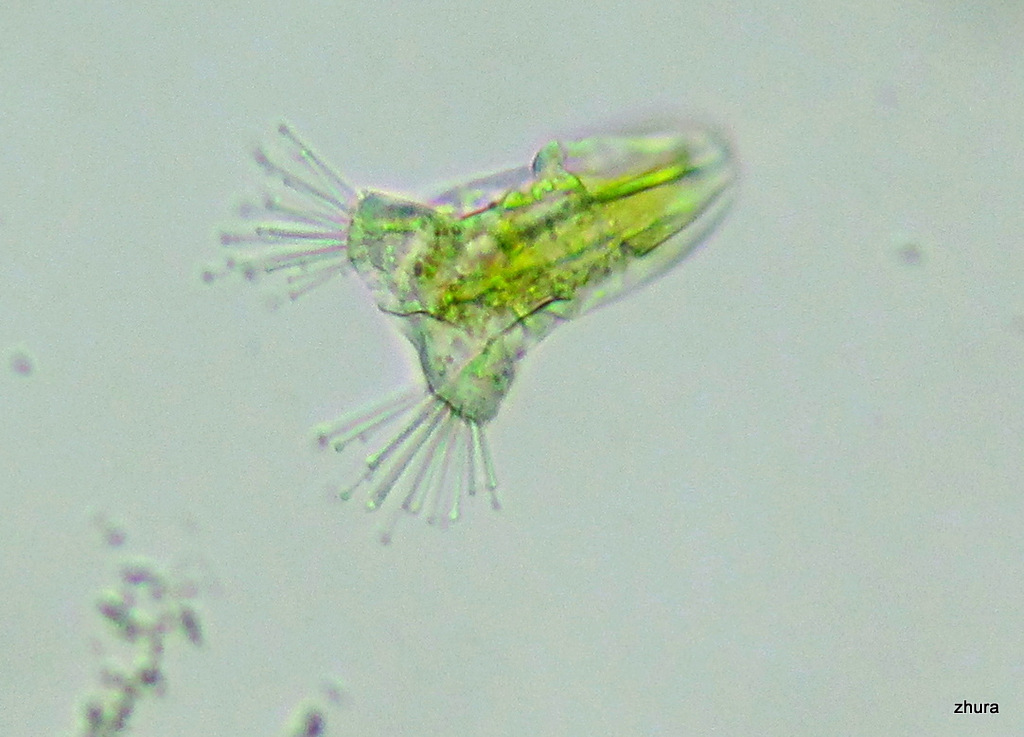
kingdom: Chromista
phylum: Ciliophora
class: Kinetofragminophora
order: Suctorida
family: Acinetidae
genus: Acineta
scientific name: Acineta tuberosa
